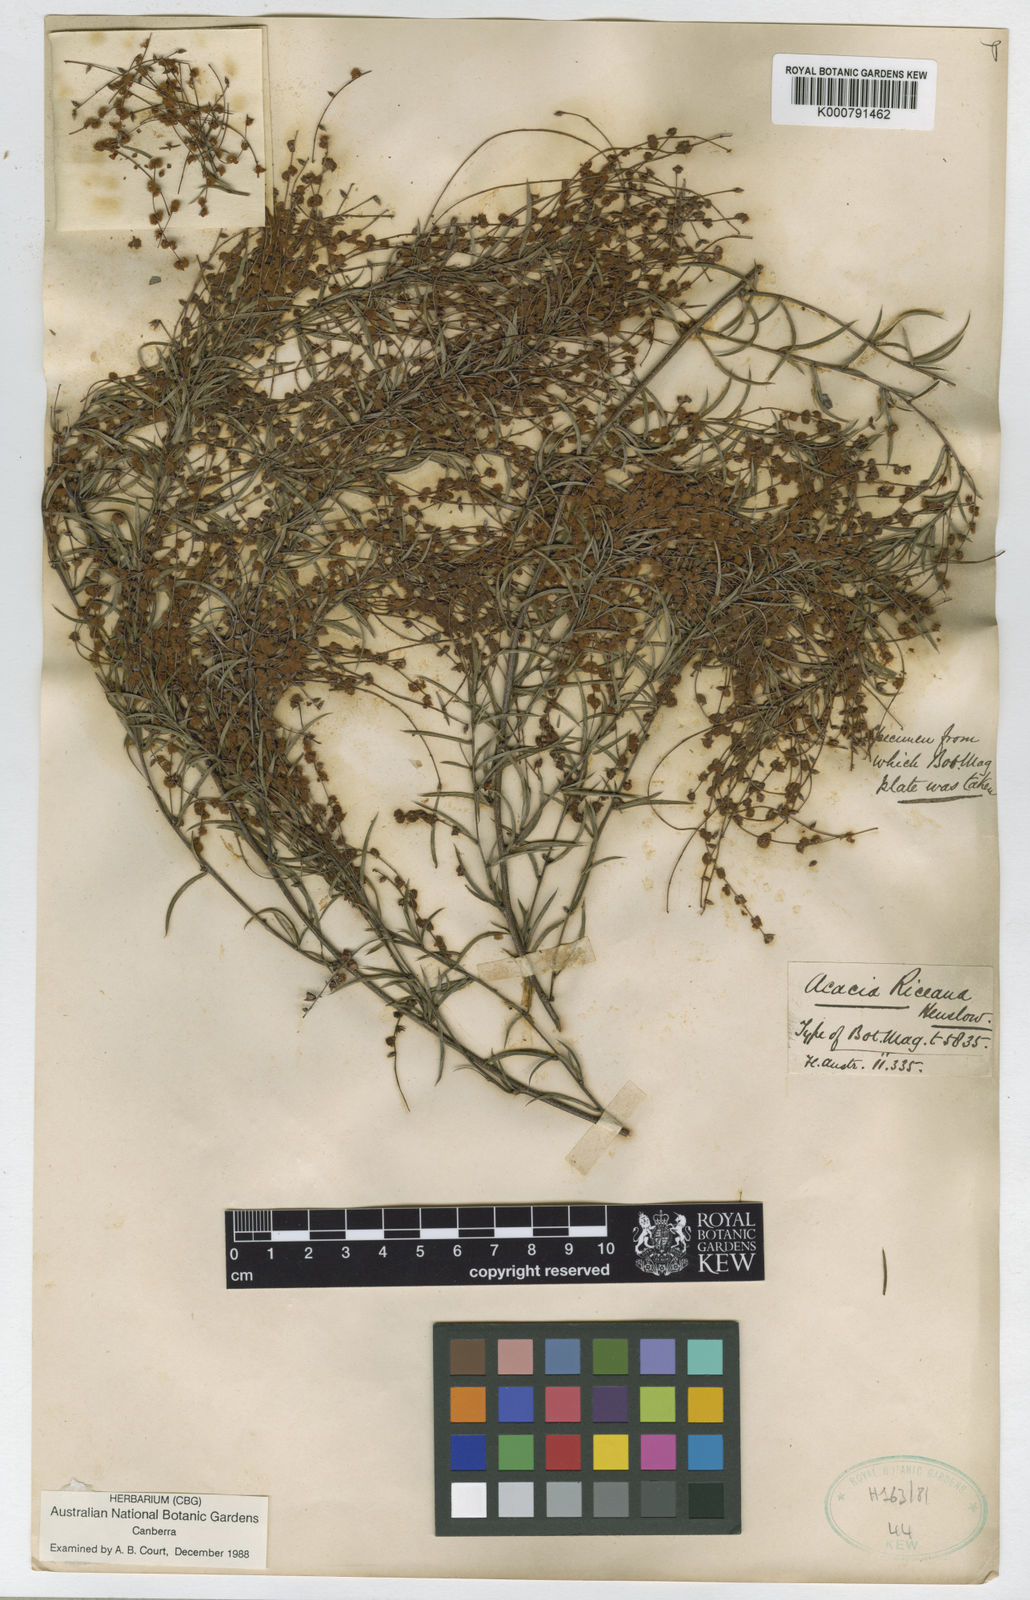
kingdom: Plantae
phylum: Tracheophyta
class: Magnoliopsida
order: Fabales
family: Fabaceae
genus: Acacia
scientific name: Acacia riceana
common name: Rice's wattle
